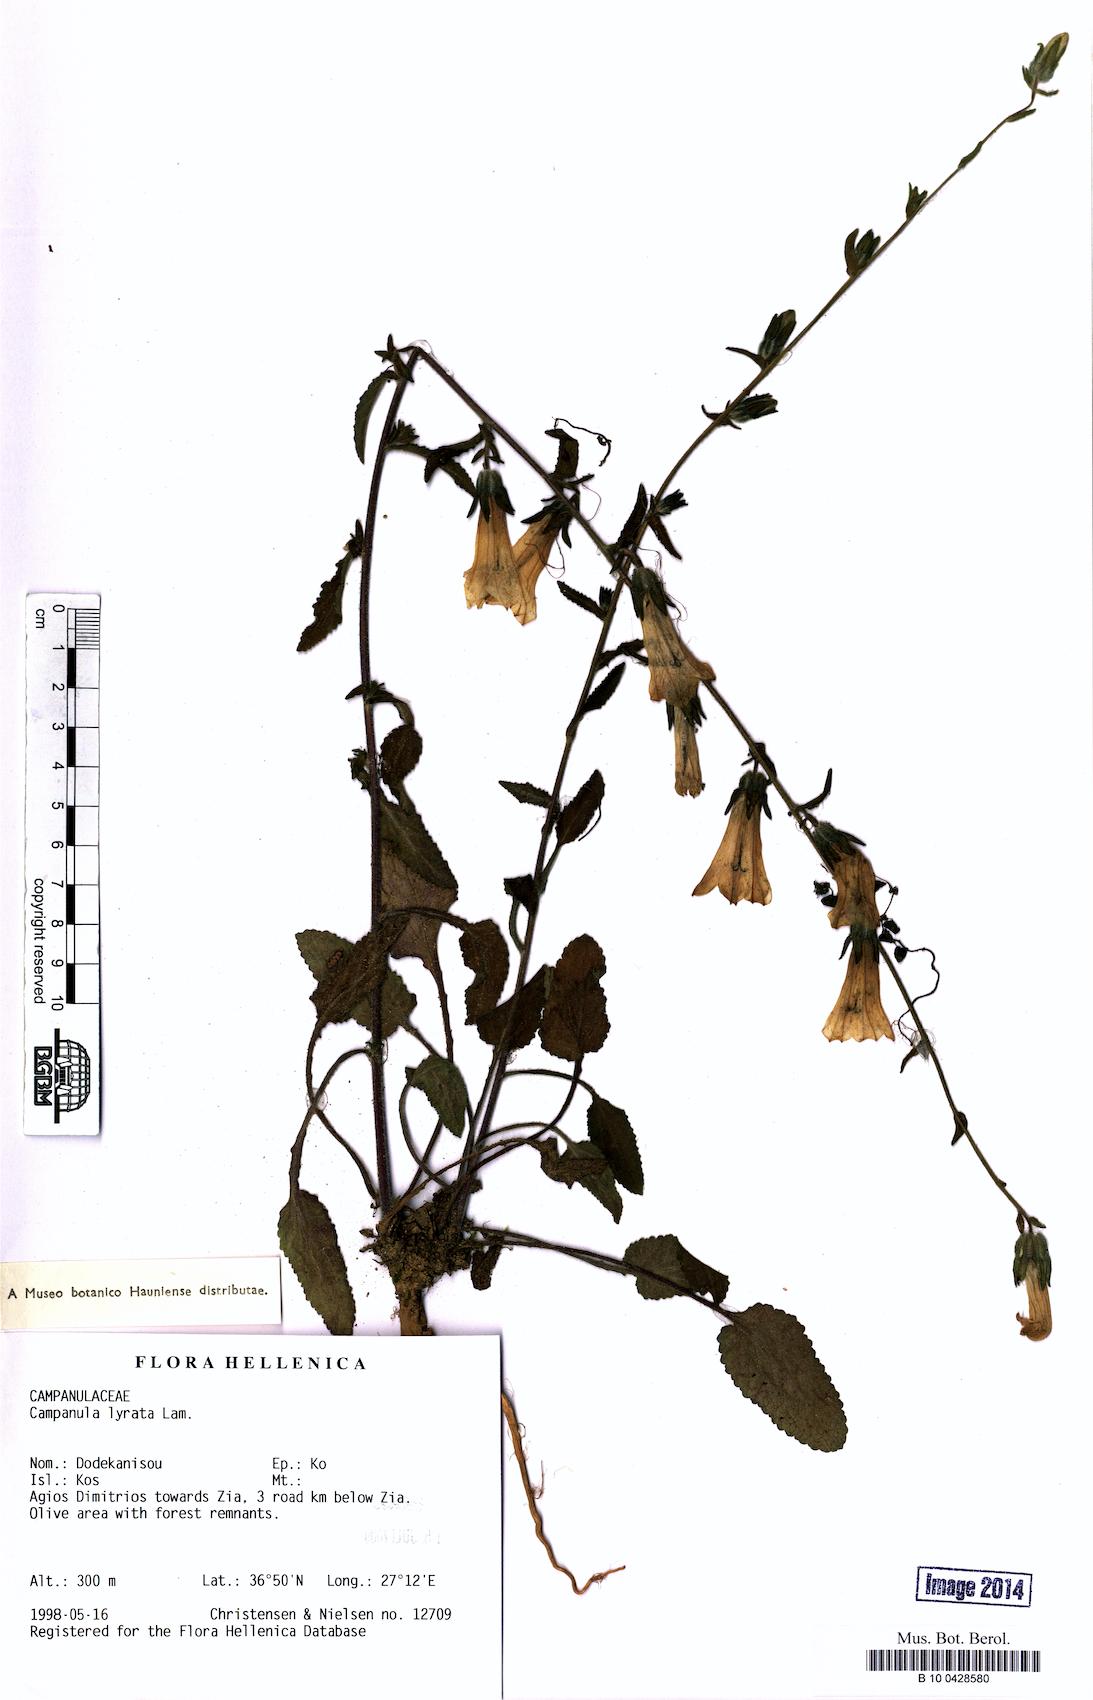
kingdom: Plantae
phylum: Tracheophyta
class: Magnoliopsida
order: Asterales
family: Campanulaceae
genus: Campanula
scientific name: Campanula lyrata
